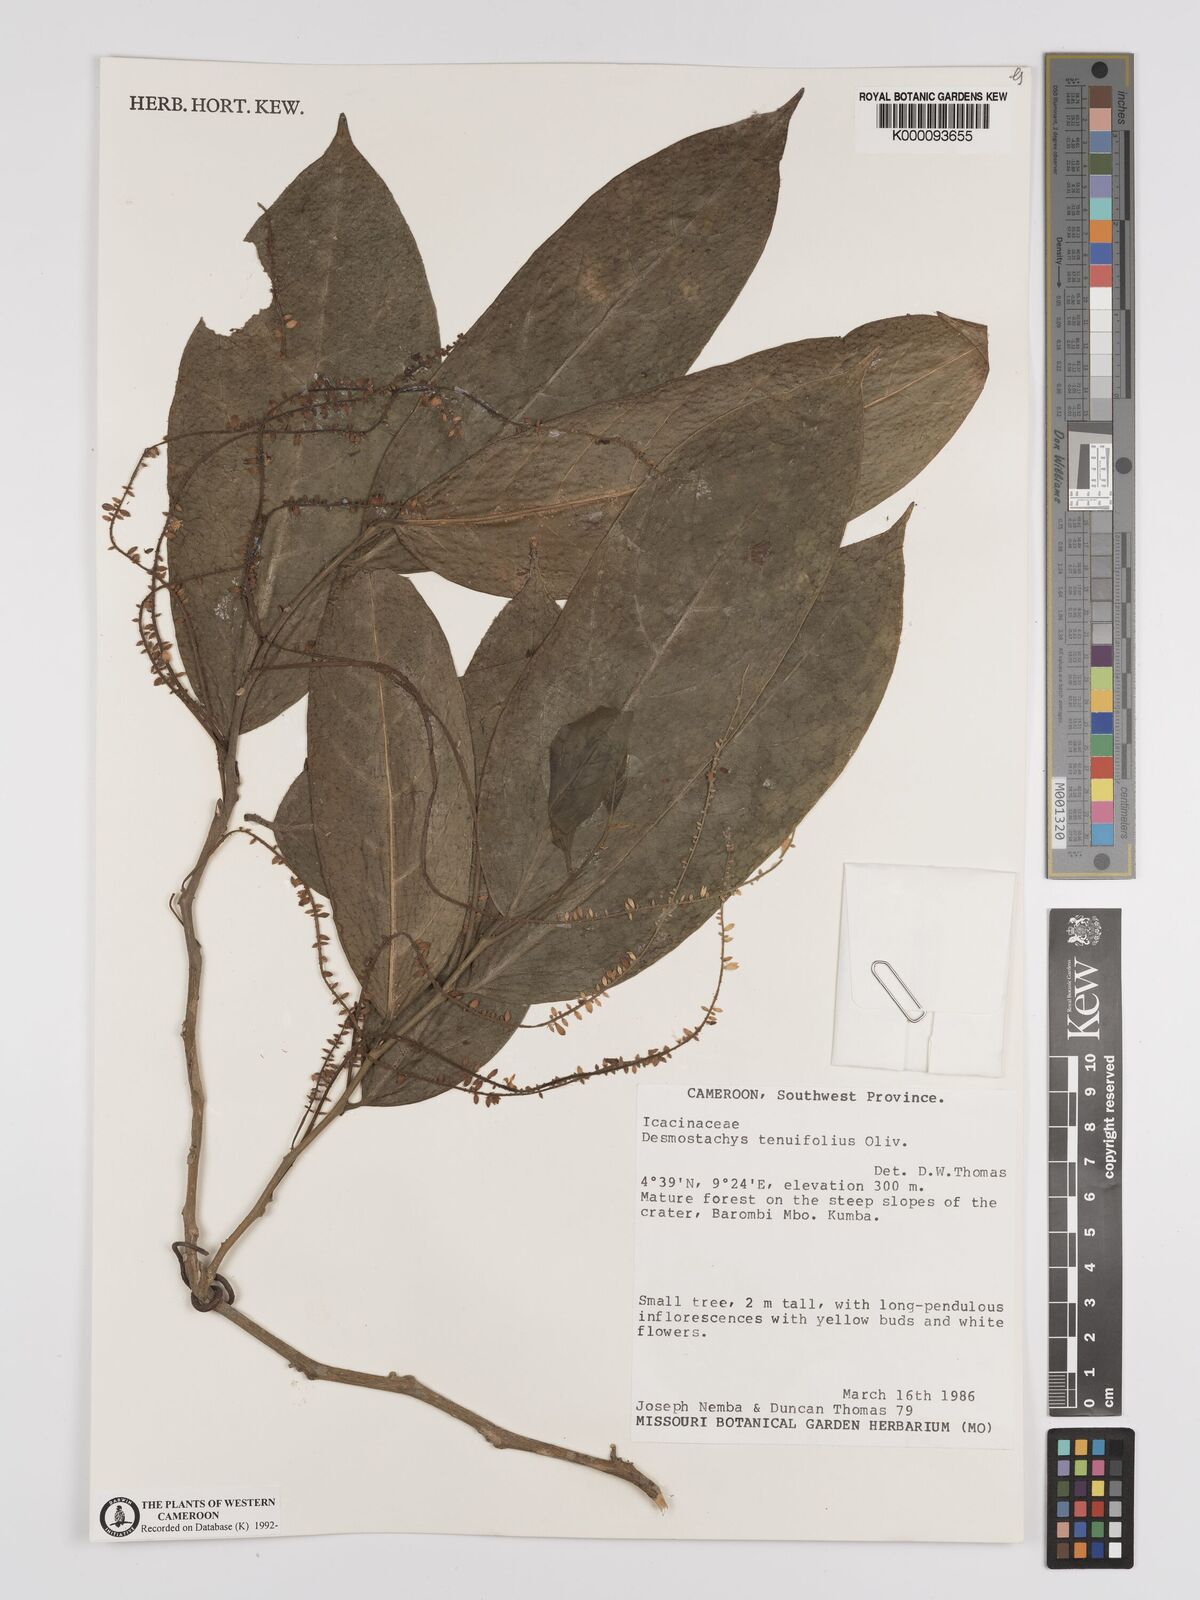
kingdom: Plantae
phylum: Tracheophyta
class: Magnoliopsida
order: Icacinales
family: Icacinaceae
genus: Vadensea
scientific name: Vadensea tenuifolia
